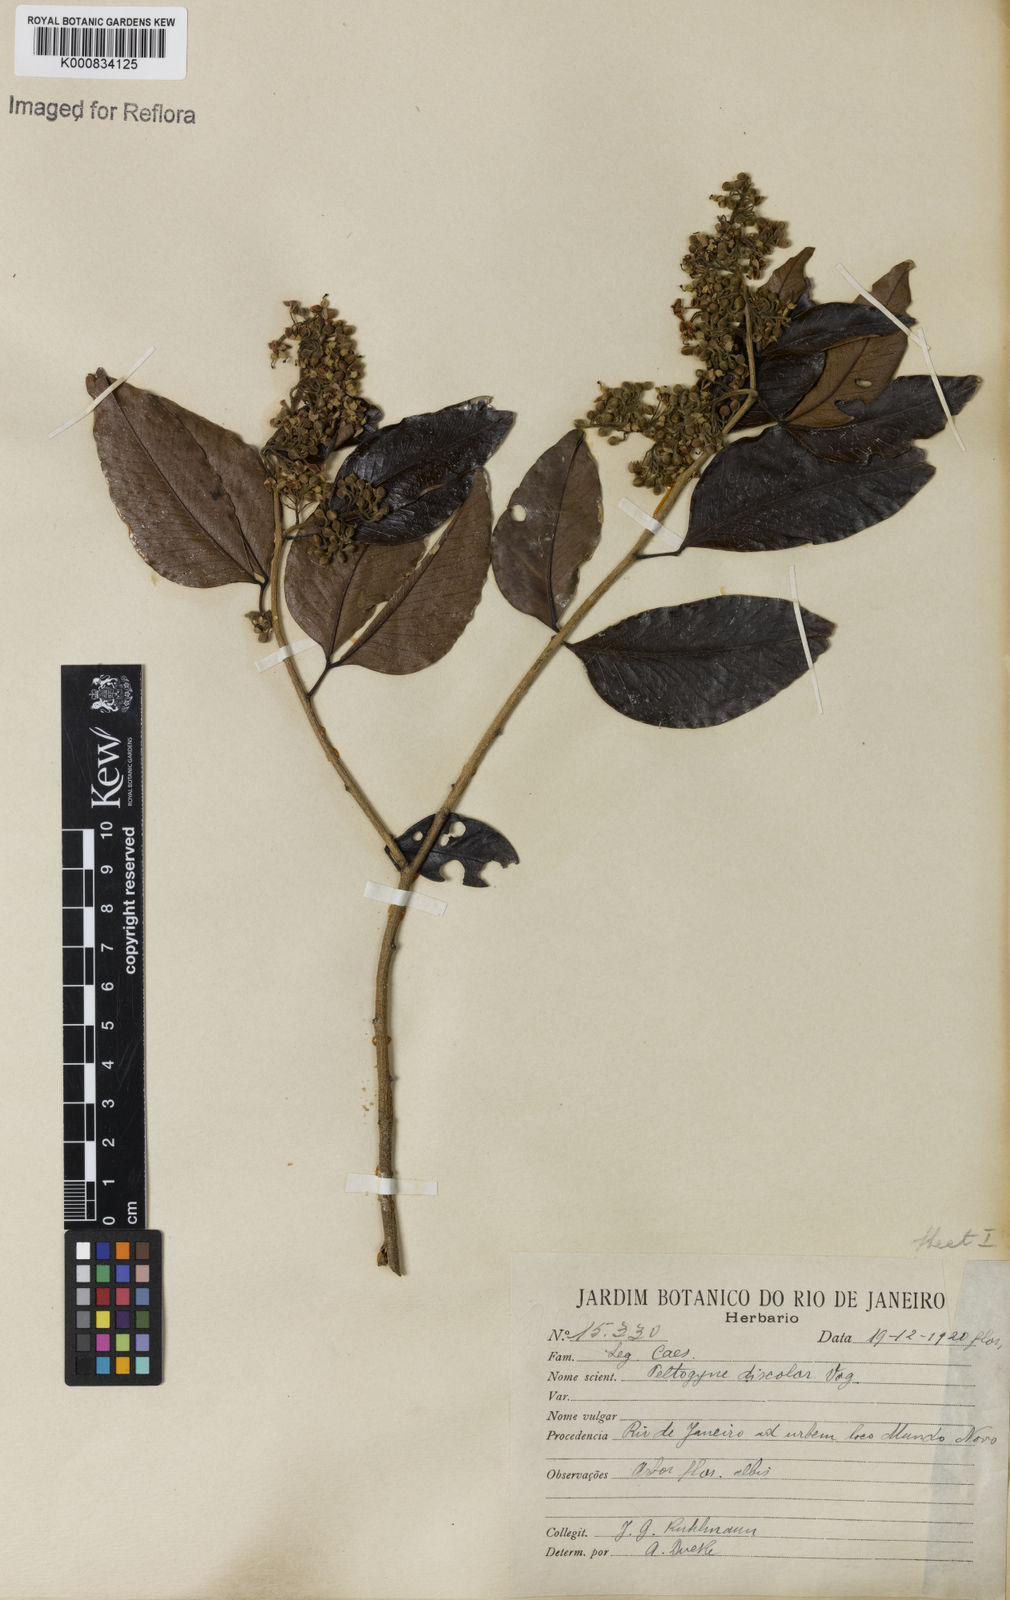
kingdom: Plantae
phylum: Tracheophyta
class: Magnoliopsida
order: Fabales
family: Fabaceae
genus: Peltogyne
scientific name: Peltogyne discolor
